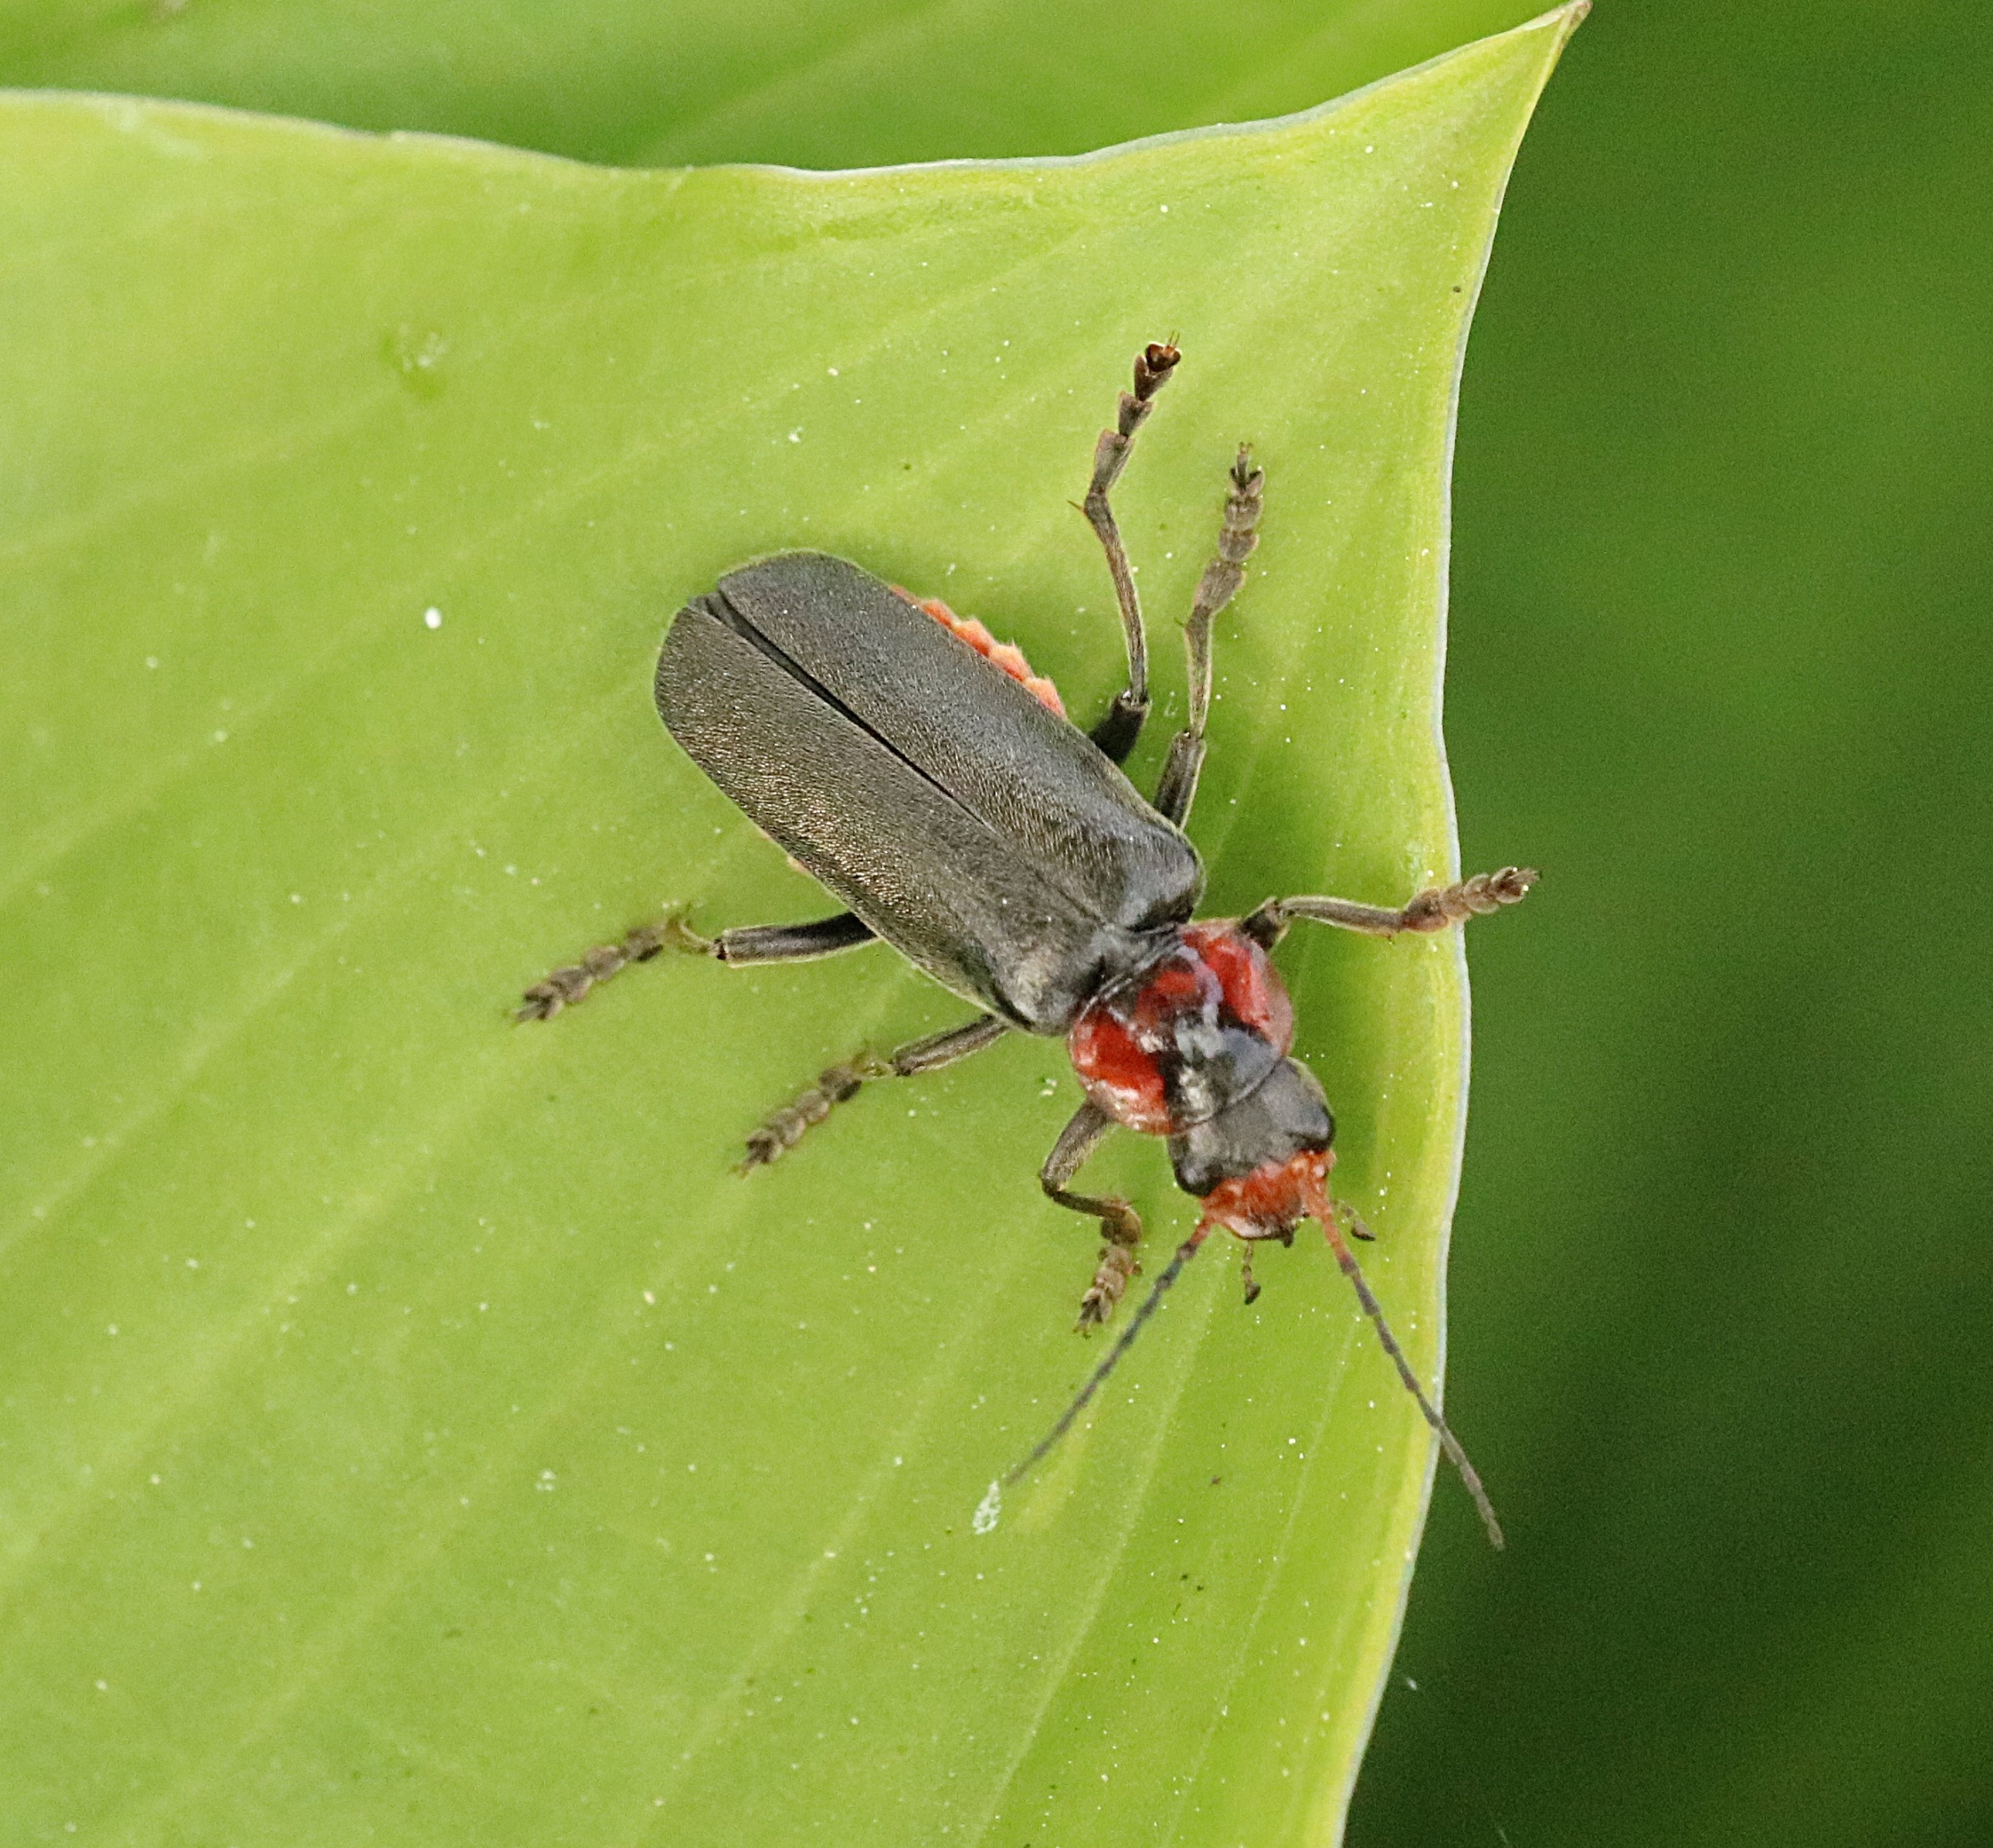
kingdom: Animalia
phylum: Arthropoda
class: Insecta
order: Coleoptera
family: Cantharidae
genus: Cantharis
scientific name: Cantharis fusca
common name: Stor blødvinge
